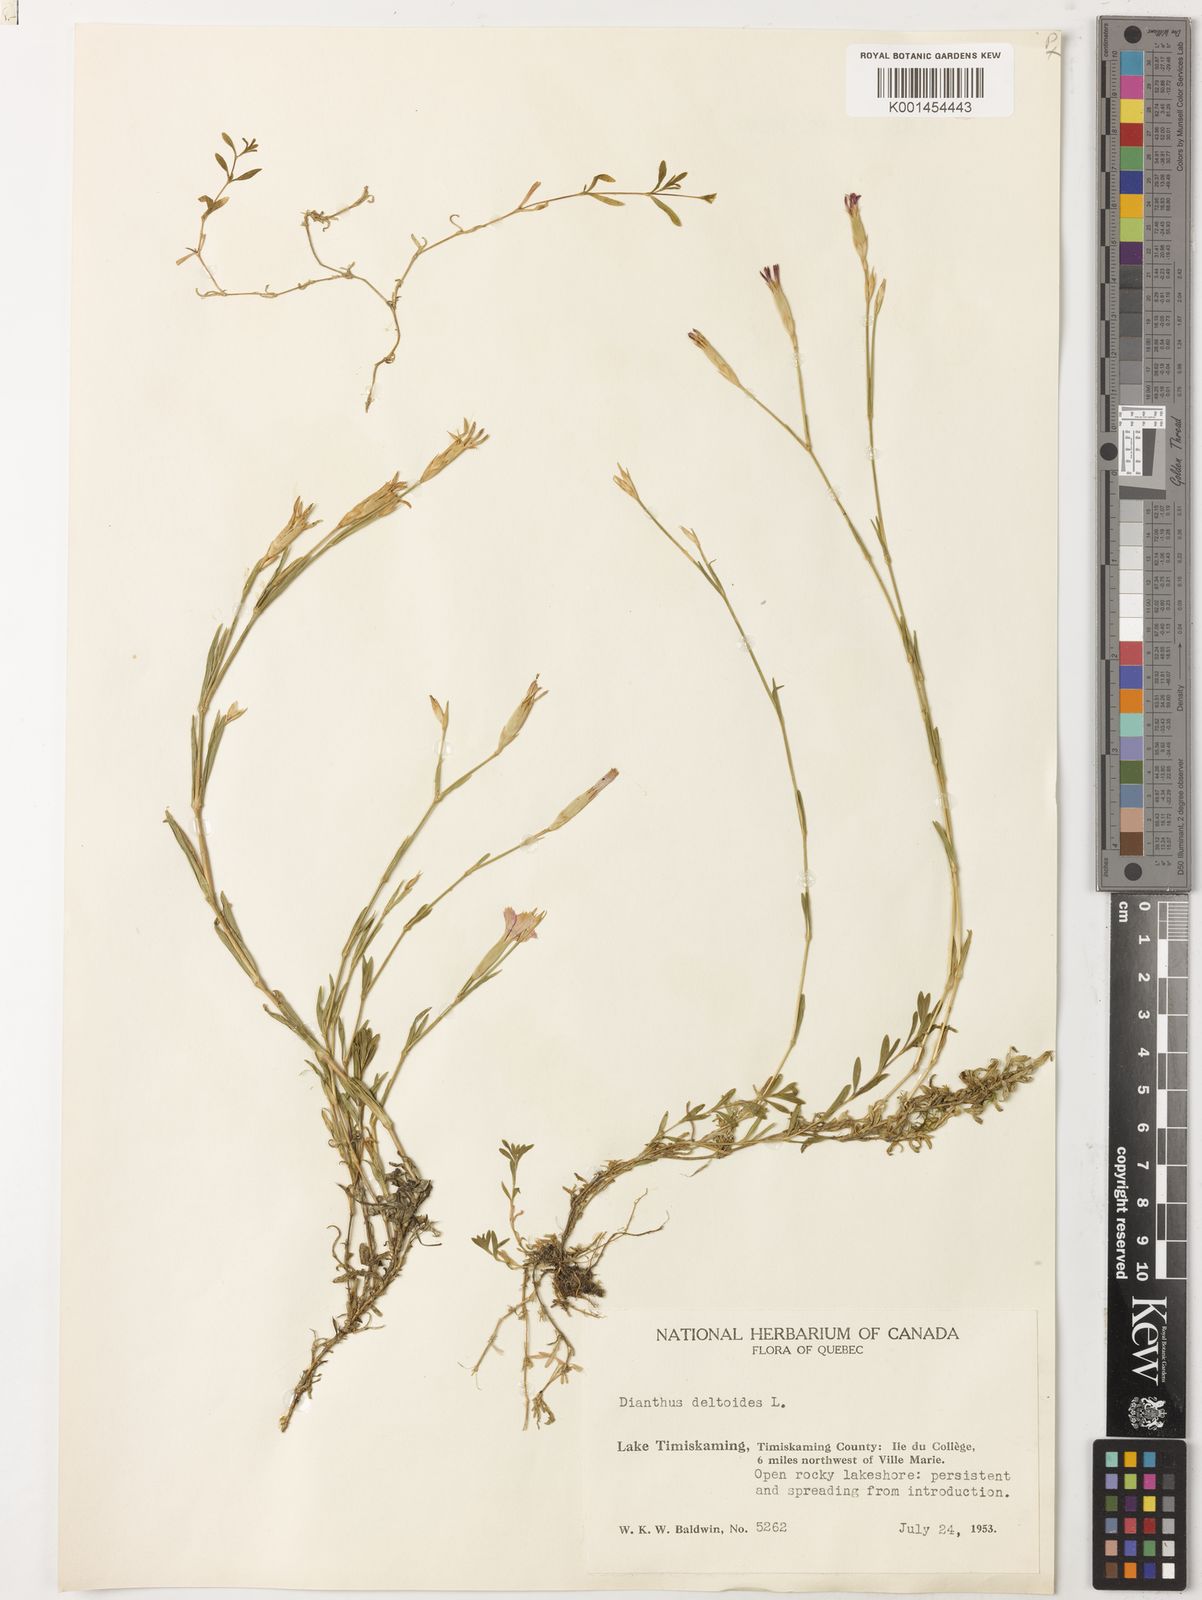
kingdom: Plantae
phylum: Tracheophyta
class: Magnoliopsida
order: Caryophyllales
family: Caryophyllaceae
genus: Dianthus
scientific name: Dianthus deltoides
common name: Maiden pink
